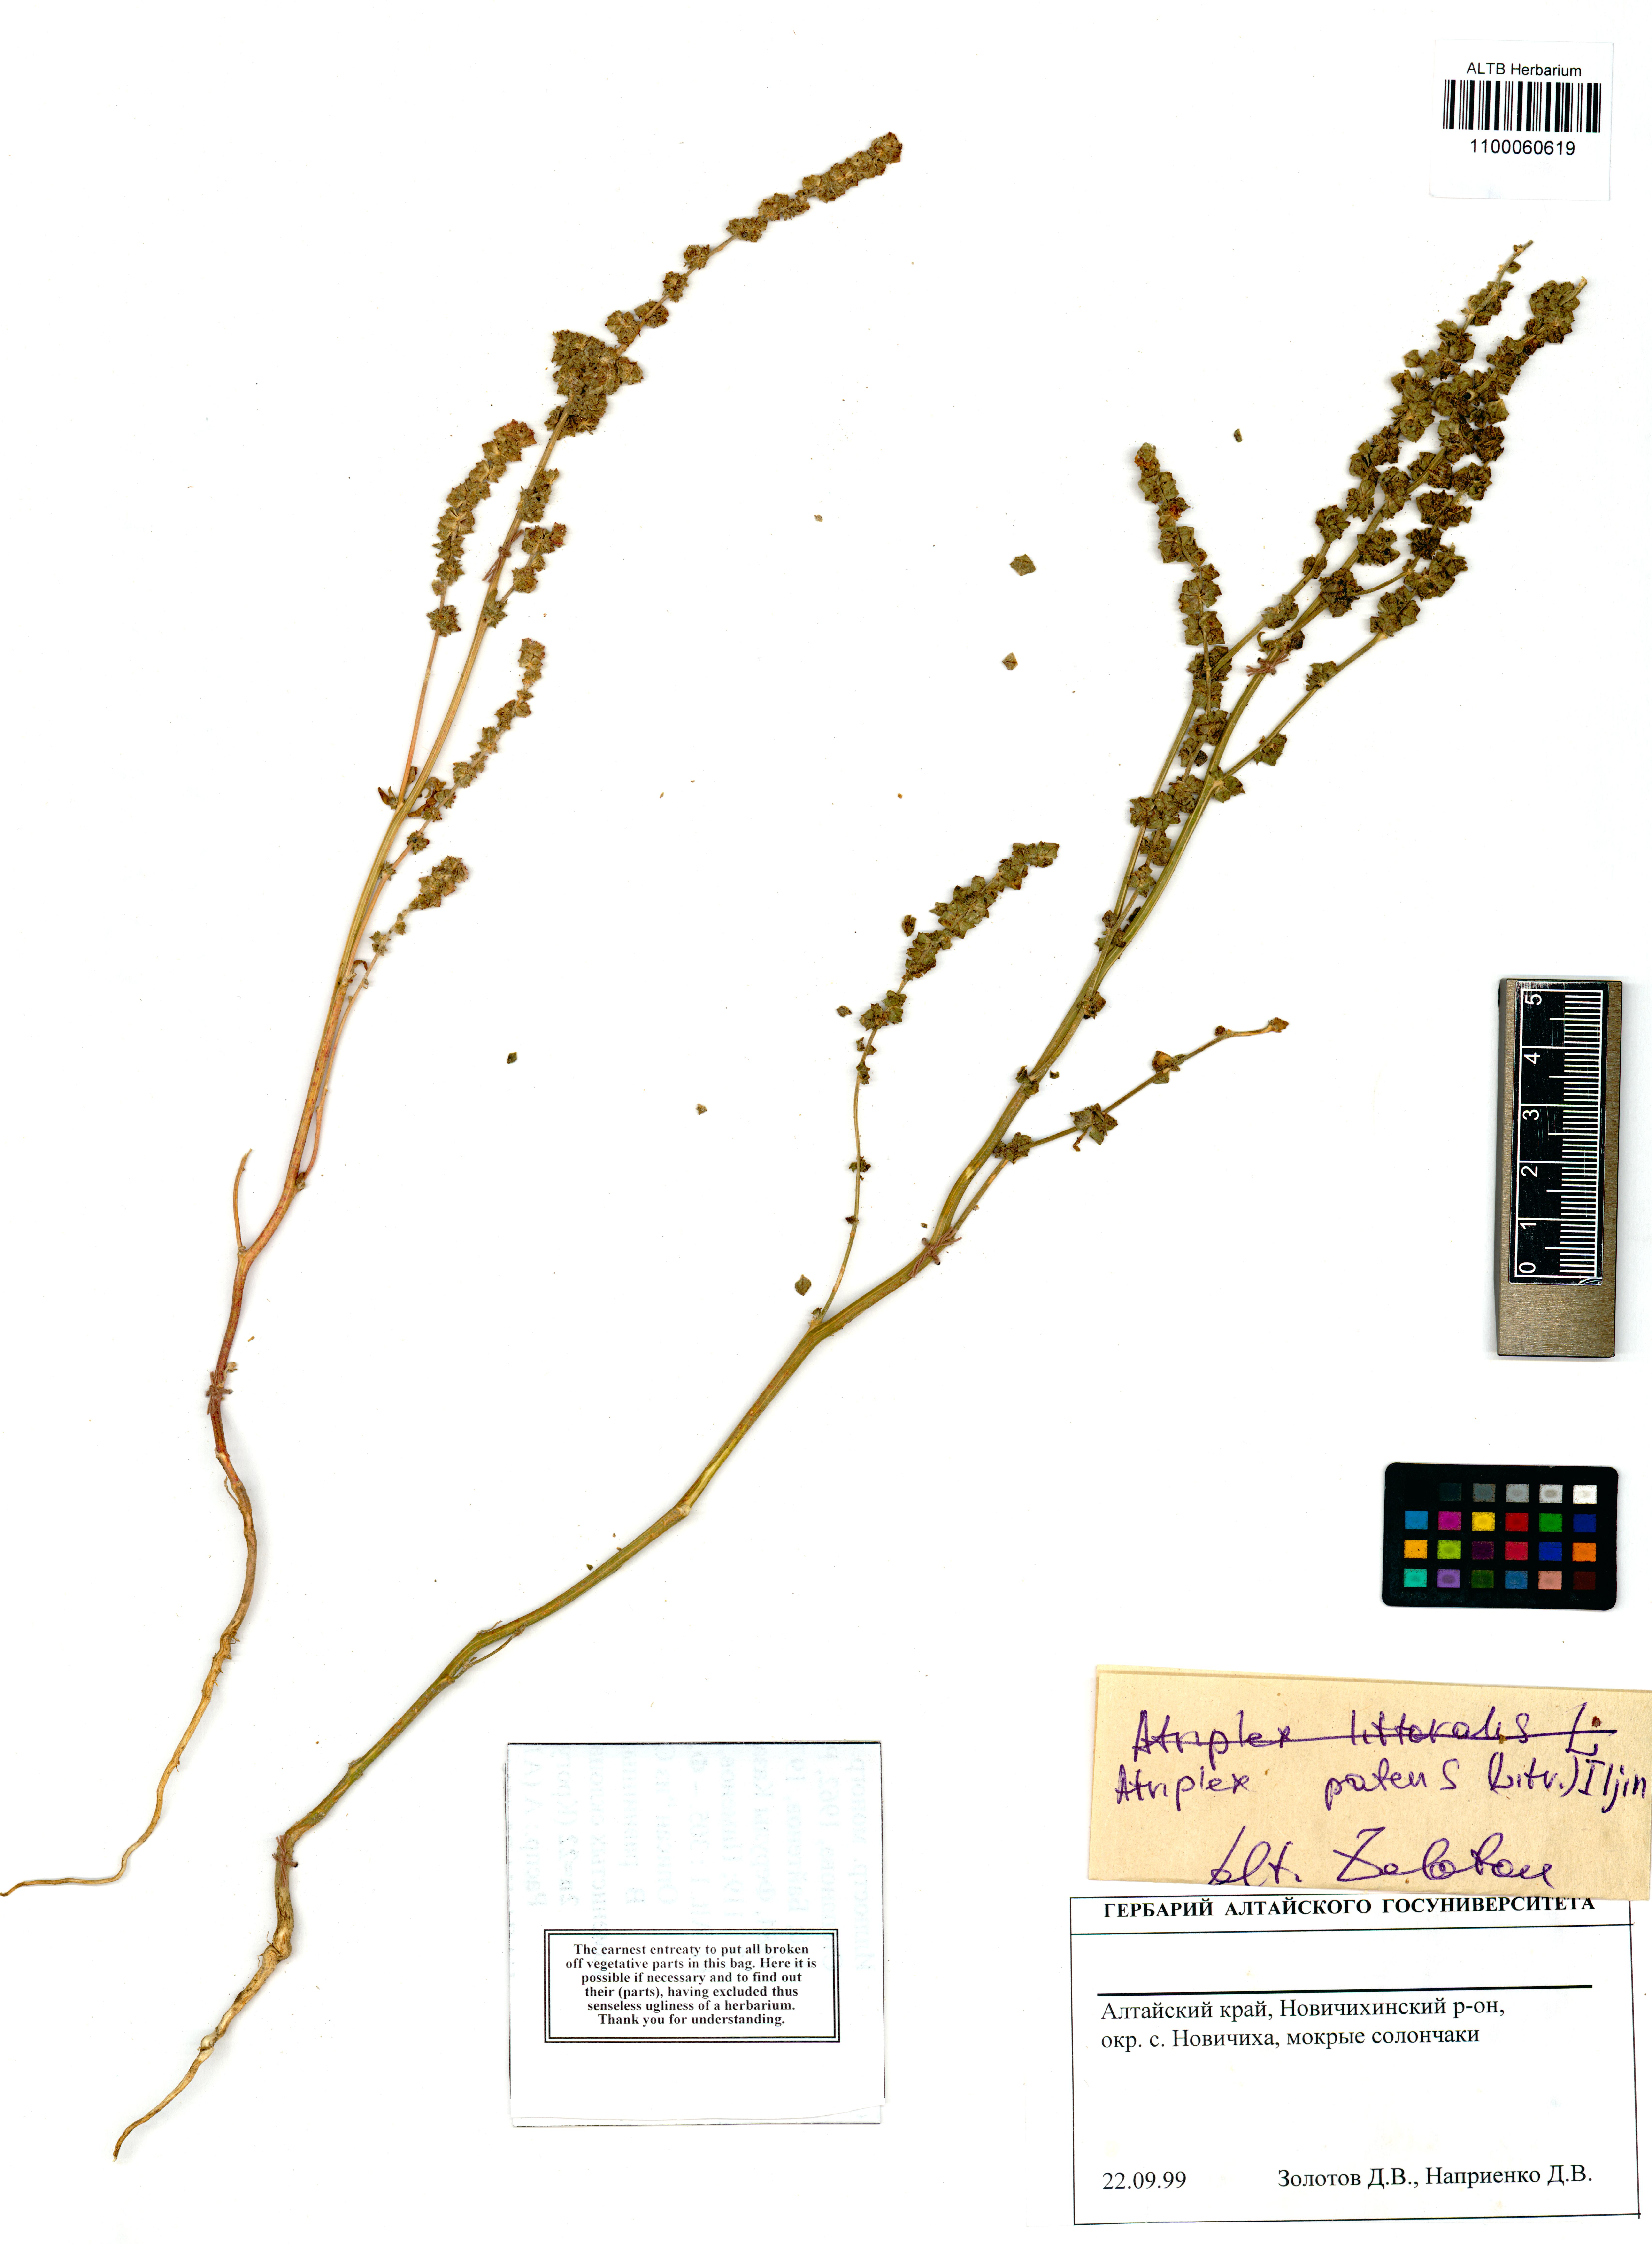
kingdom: Plantae
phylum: Tracheophyta
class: Magnoliopsida
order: Caryophyllales
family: Amaranthaceae
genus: Atriplex
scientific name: Atriplex patens
